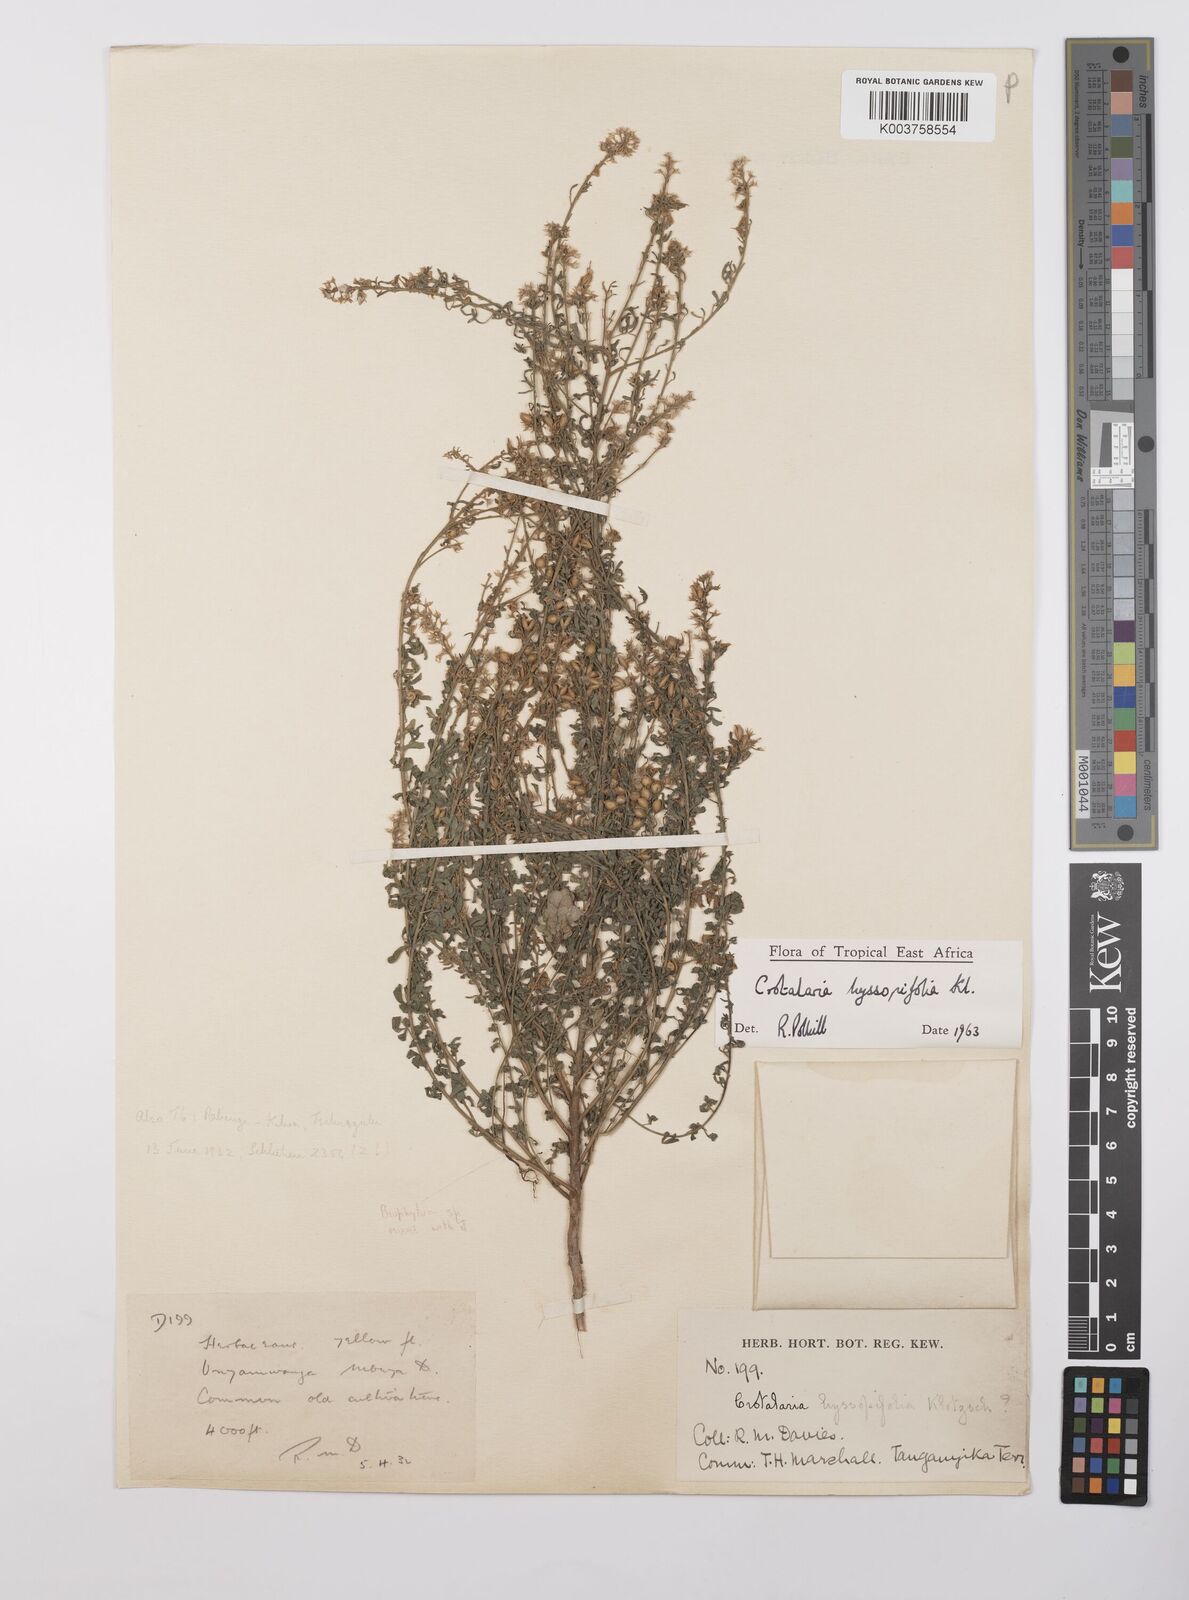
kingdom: Plantae
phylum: Tracheophyta
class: Magnoliopsida
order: Fabales
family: Fabaceae
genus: Crotalaria
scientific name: Crotalaria hyssopifolia
